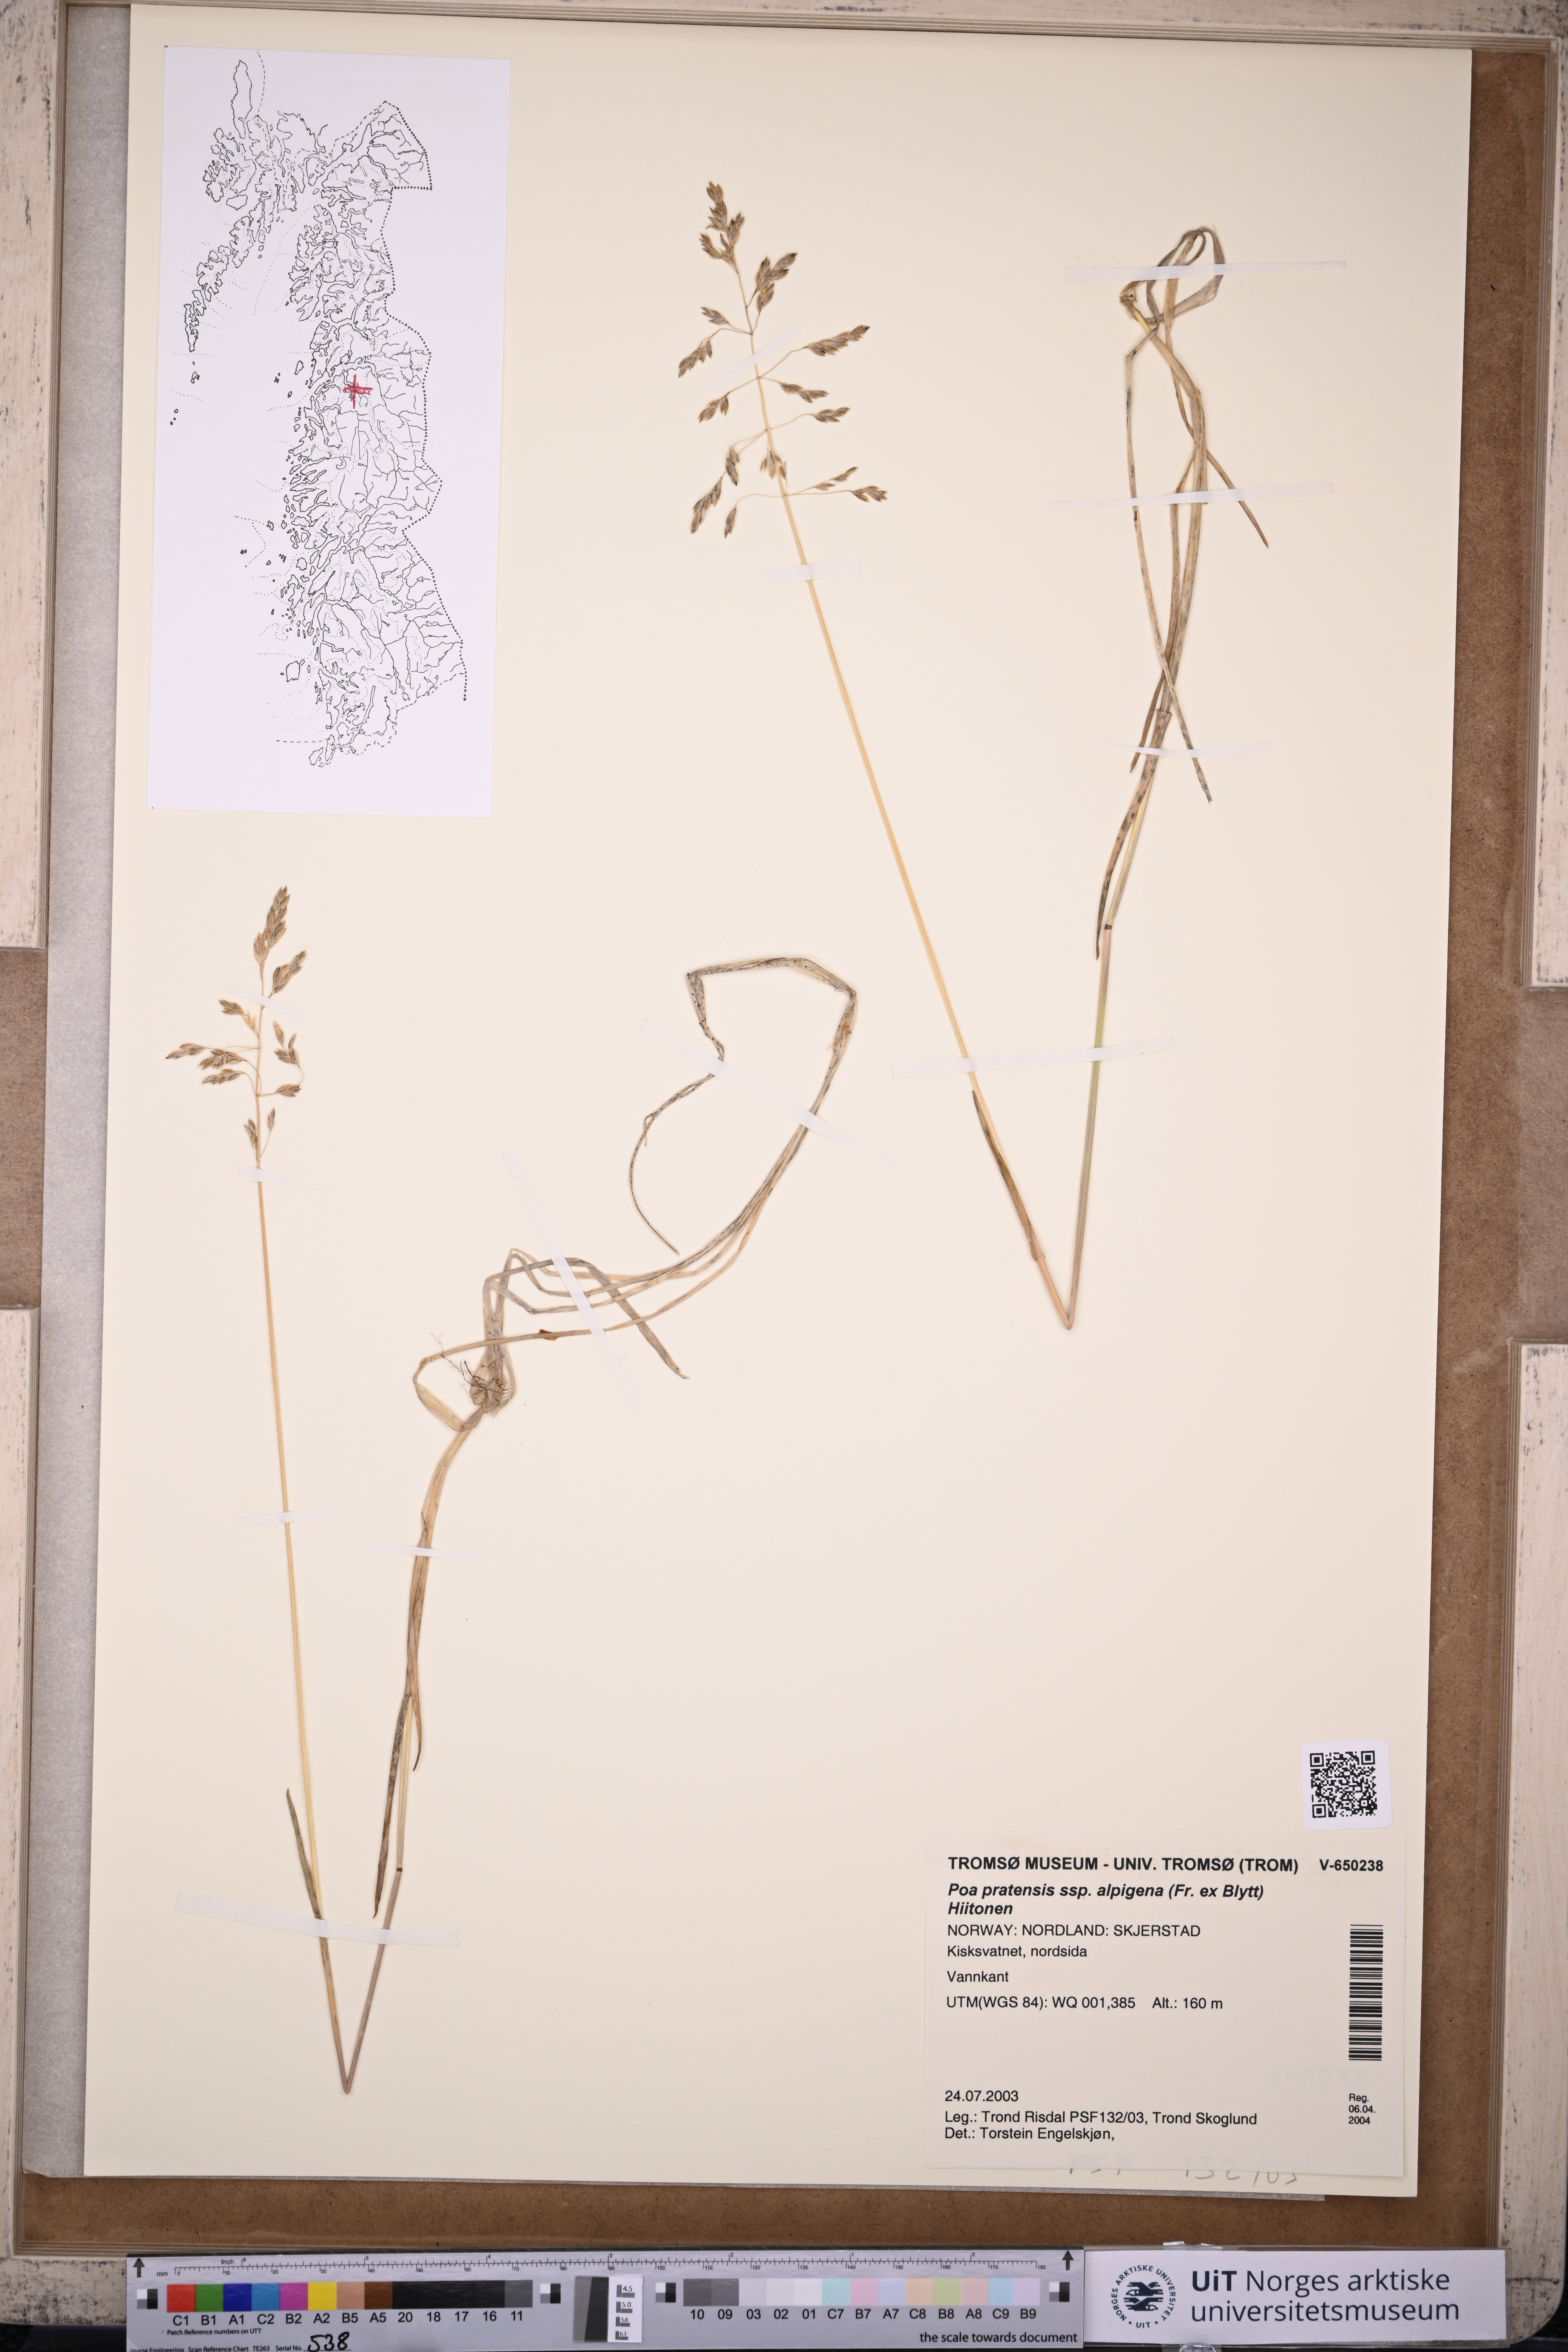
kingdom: Plantae
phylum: Tracheophyta
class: Liliopsida
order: Poales
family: Poaceae
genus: Poa
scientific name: Poa alpigena
